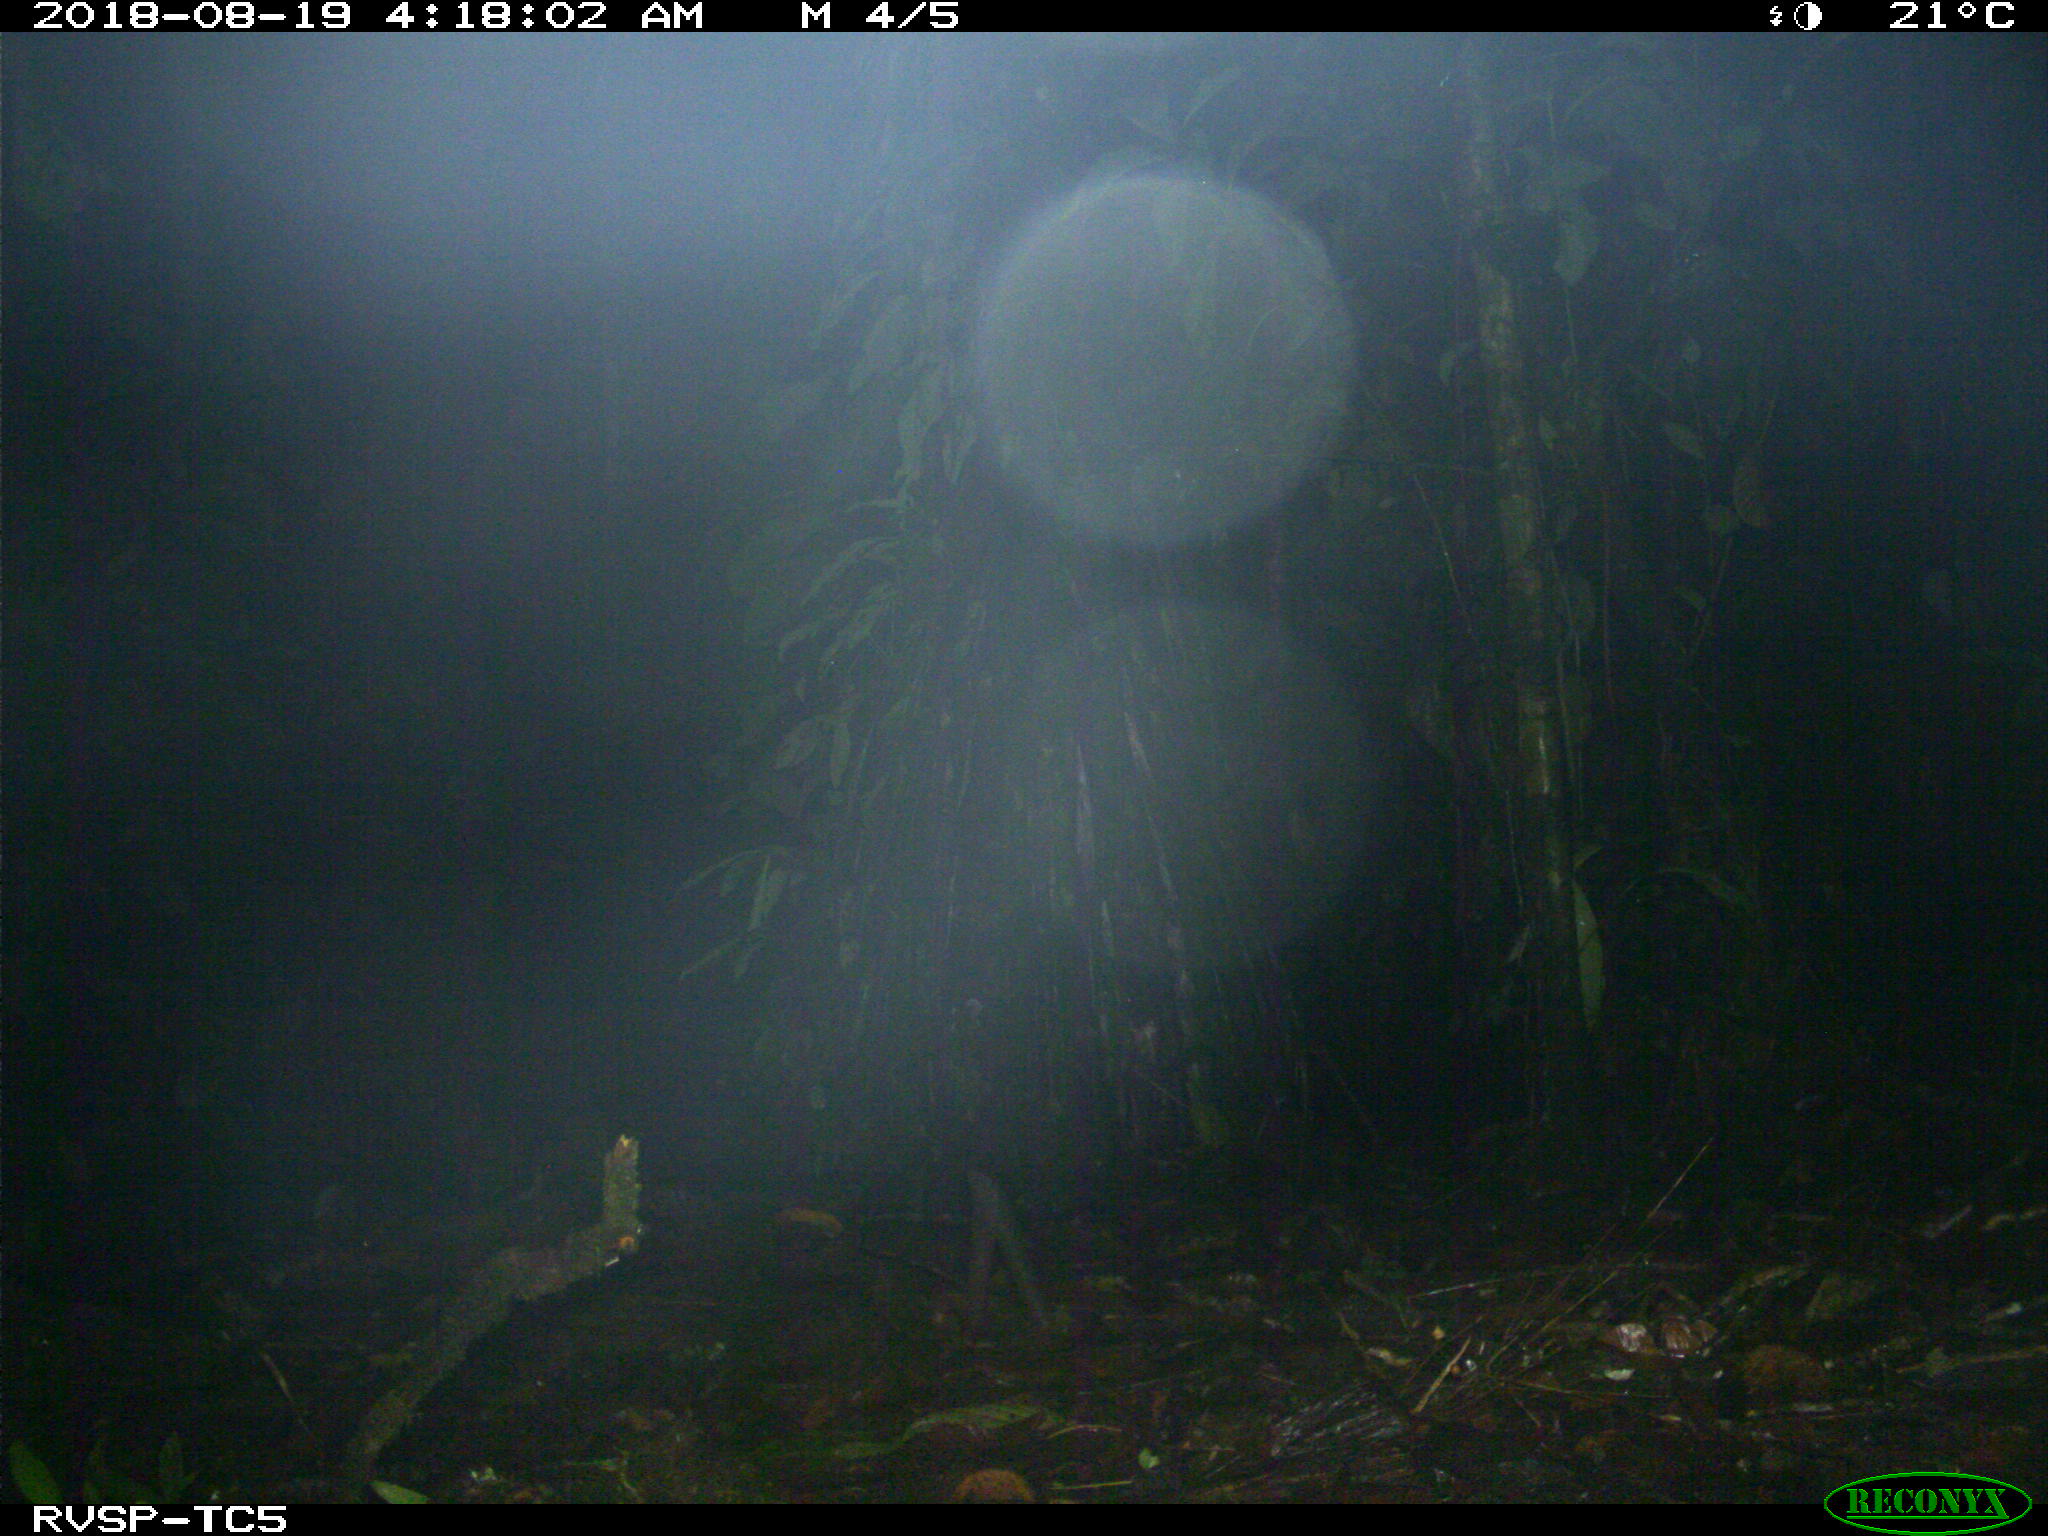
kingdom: Animalia
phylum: Chordata
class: Mammalia
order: Carnivora
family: Felidae
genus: Leopardus
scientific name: Leopardus wiedii
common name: Margay
